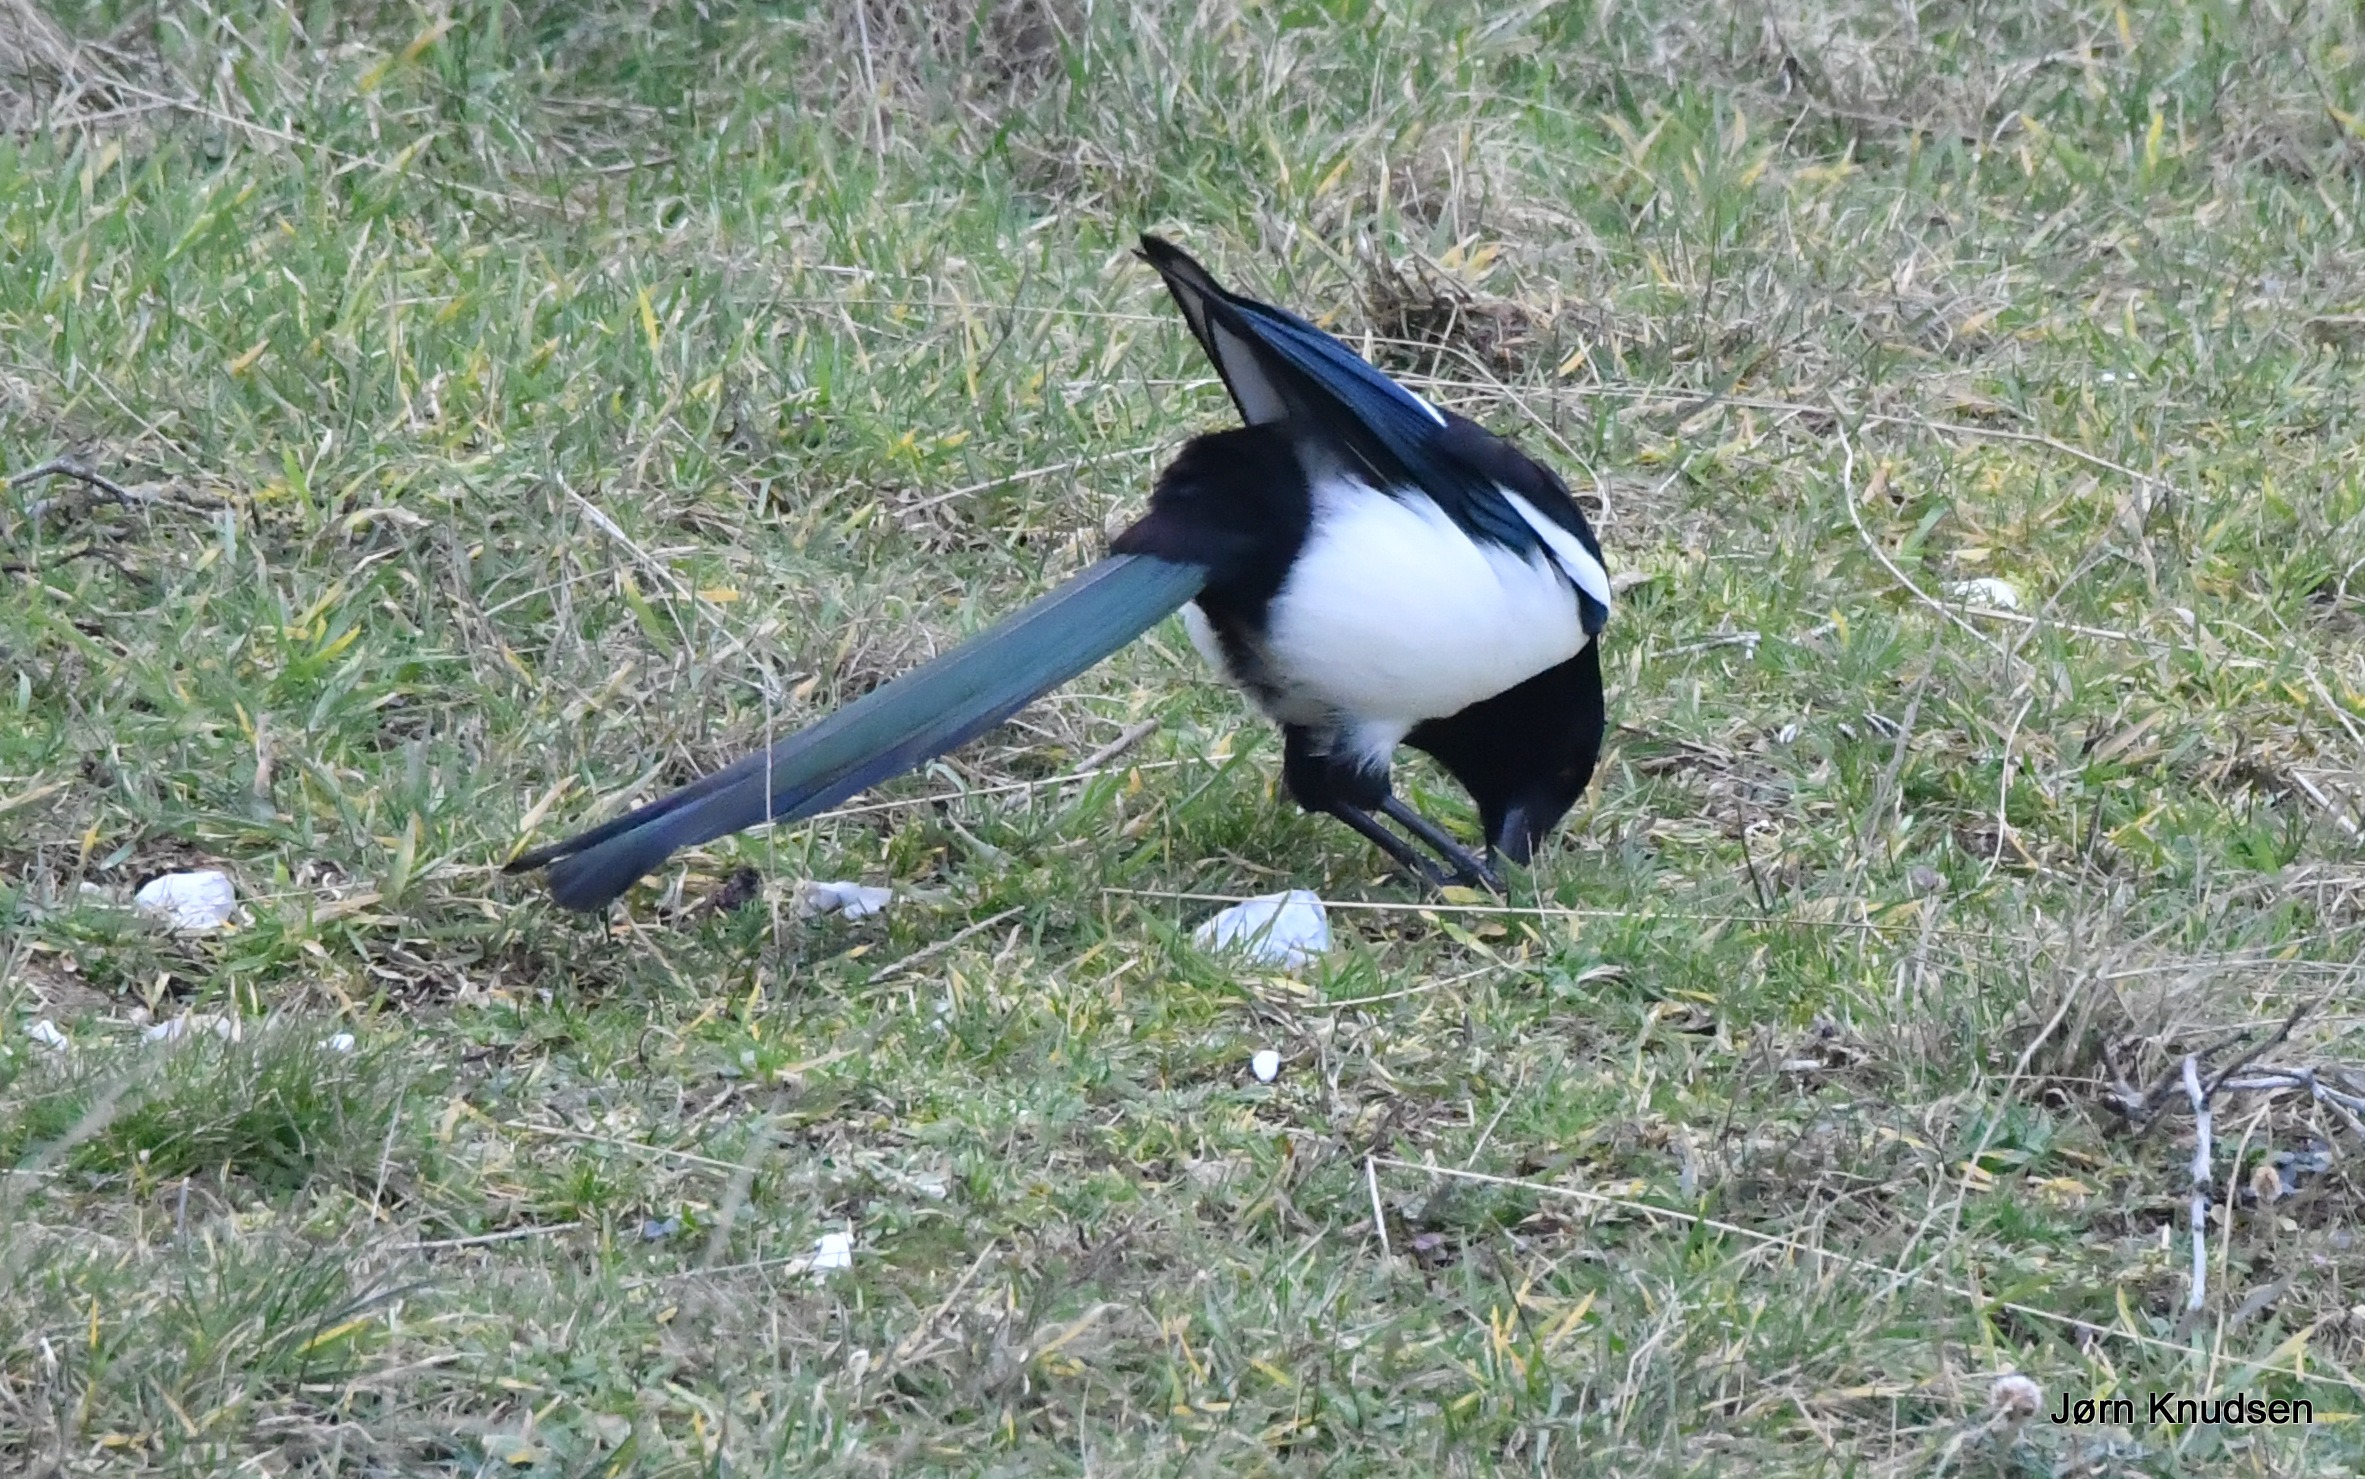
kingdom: Animalia
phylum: Chordata
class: Aves
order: Passeriformes
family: Corvidae
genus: Pica
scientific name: Pica pica
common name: Husskade
